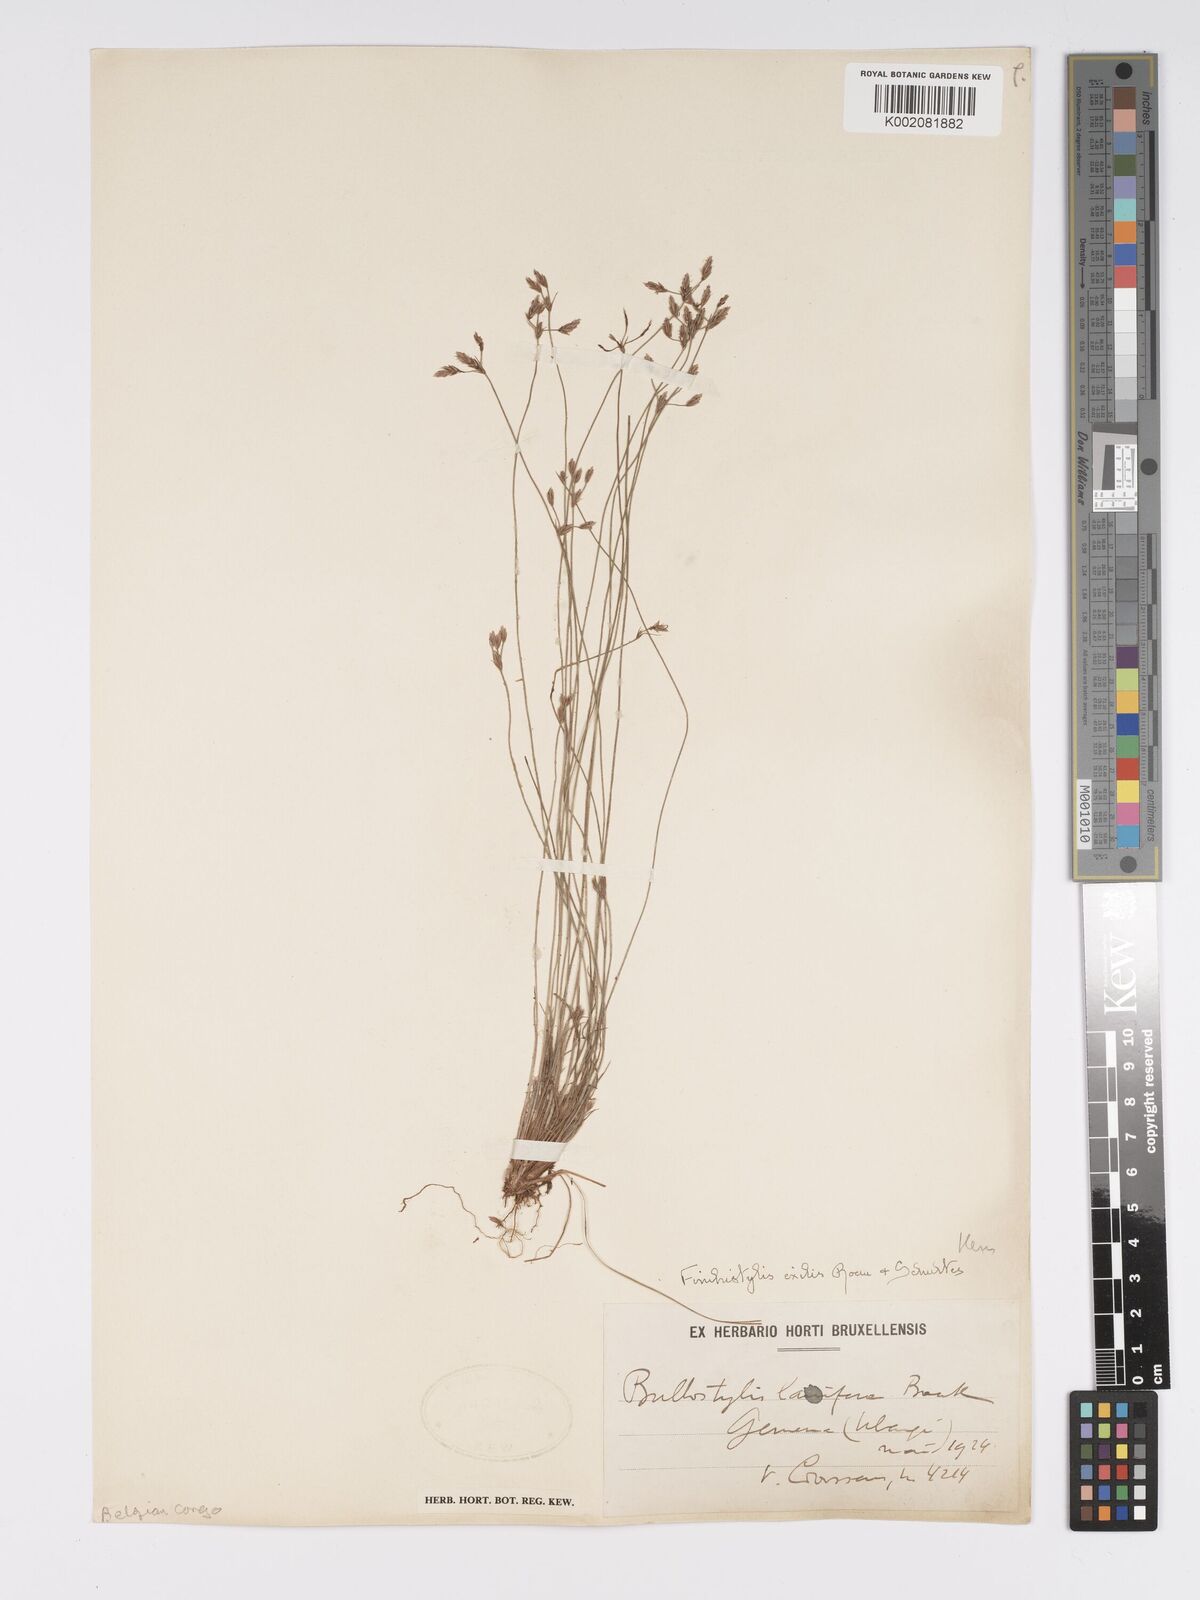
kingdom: Plantae
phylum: Tracheophyta
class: Liliopsida
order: Poales
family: Cyperaceae
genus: Bulbostylis
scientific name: Bulbostylis hispidula
